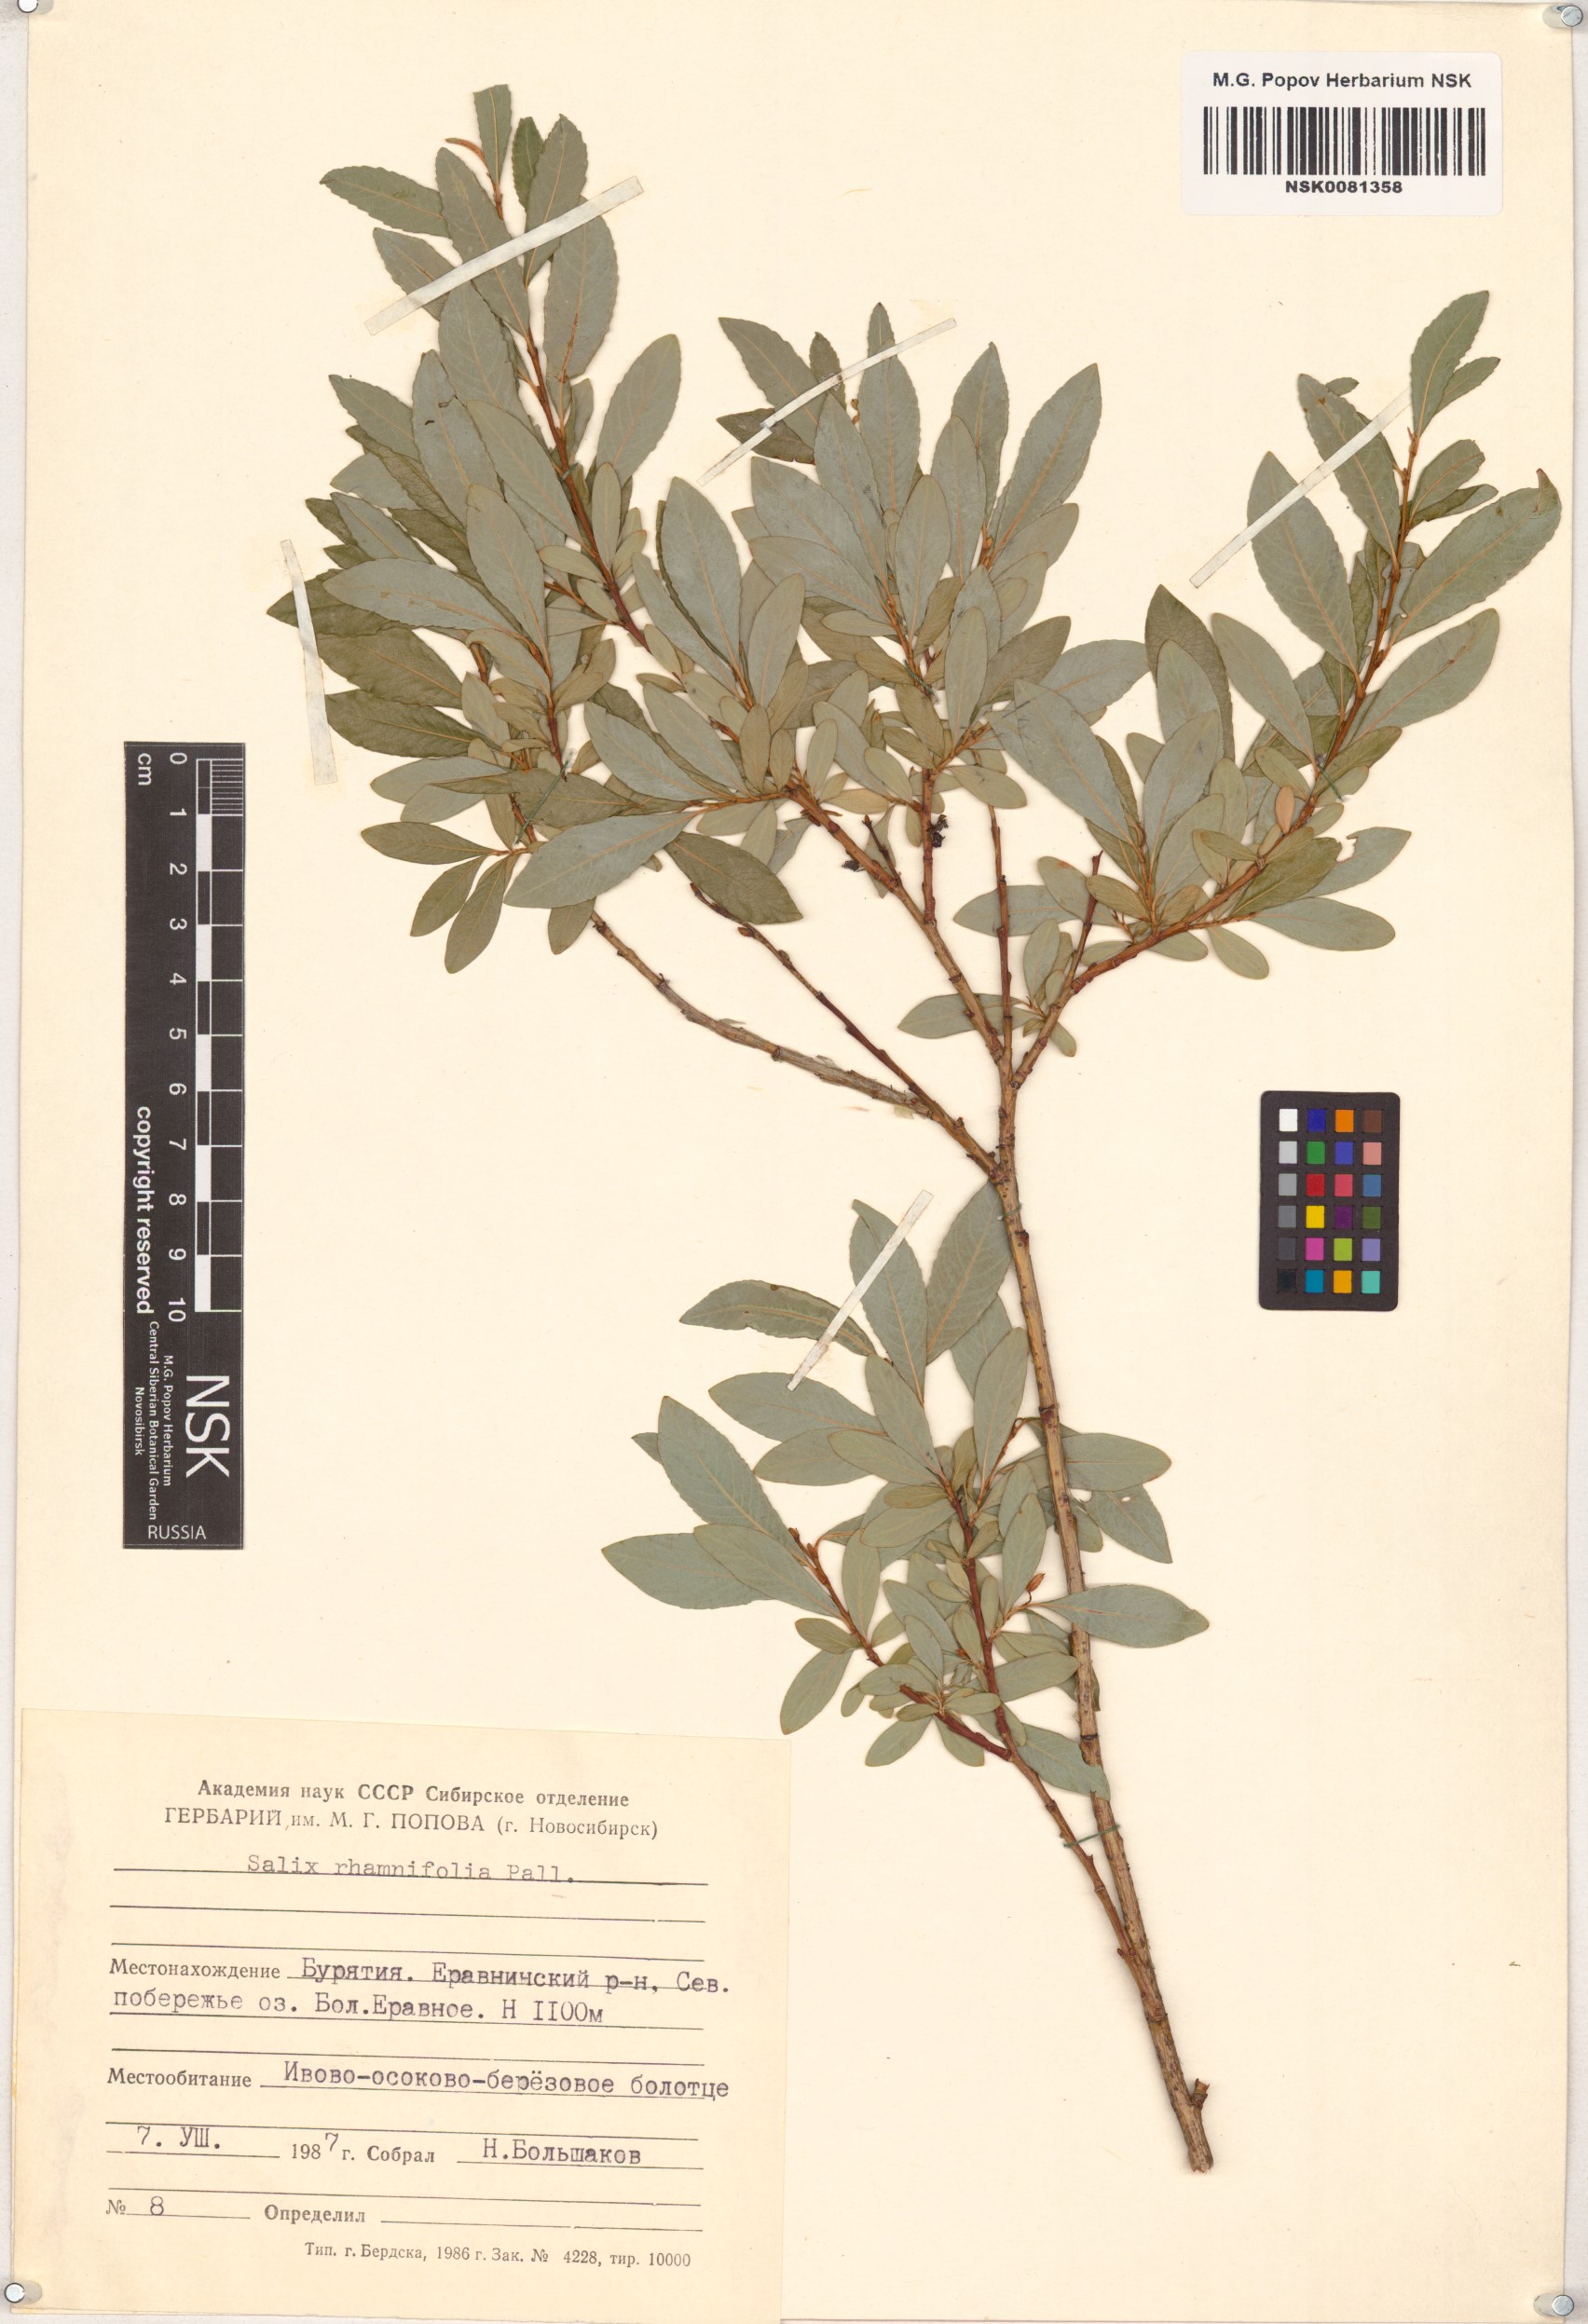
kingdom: Plantae
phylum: Tracheophyta
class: Magnoliopsida
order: Malpighiales
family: Salicaceae
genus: Salix
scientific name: Salix rhamnifolia
